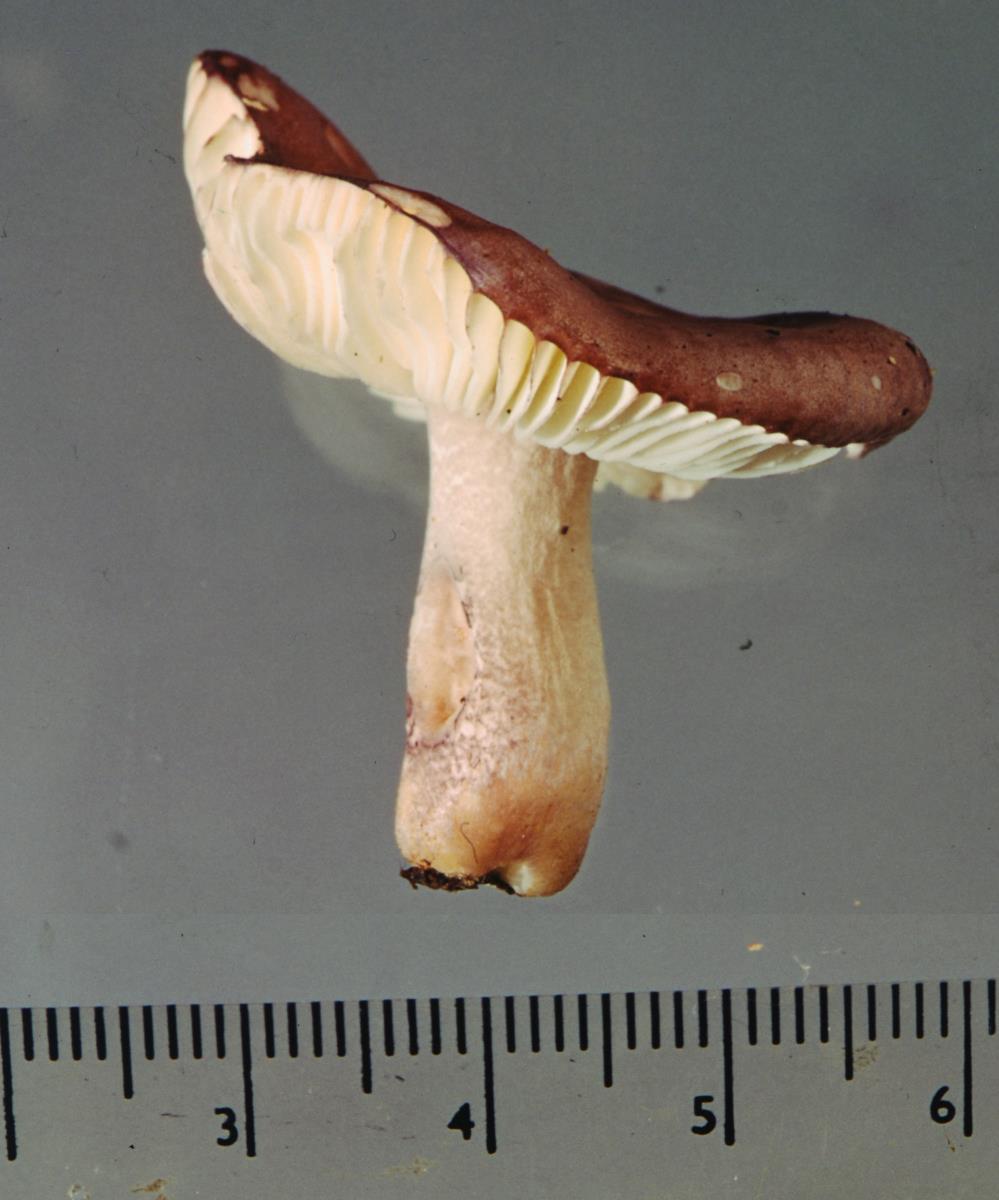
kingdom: Fungi
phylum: Basidiomycota
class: Agaricomycetes
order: Russulales
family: Russulaceae
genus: Russula
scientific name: Russula pudorina
